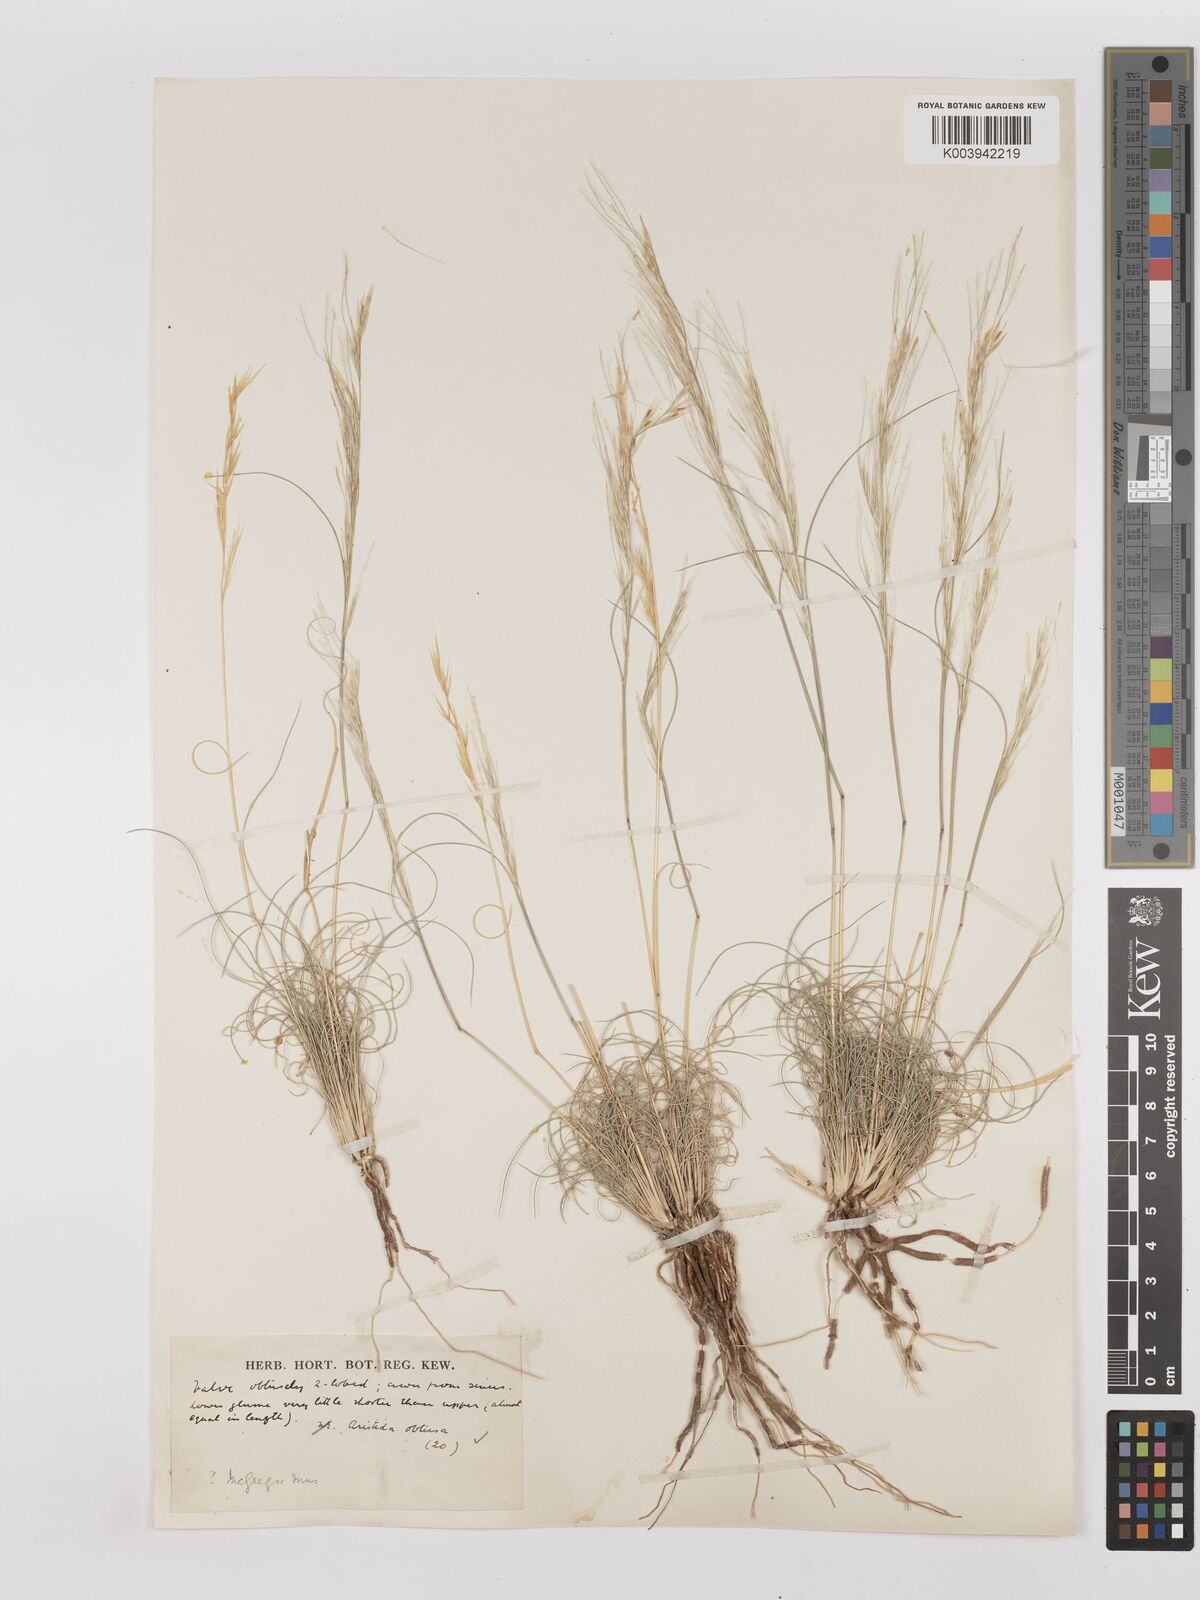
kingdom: Plantae
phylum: Tracheophyta
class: Liliopsida
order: Poales
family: Poaceae
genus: Stipagrostis
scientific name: Stipagrostis obtusa
